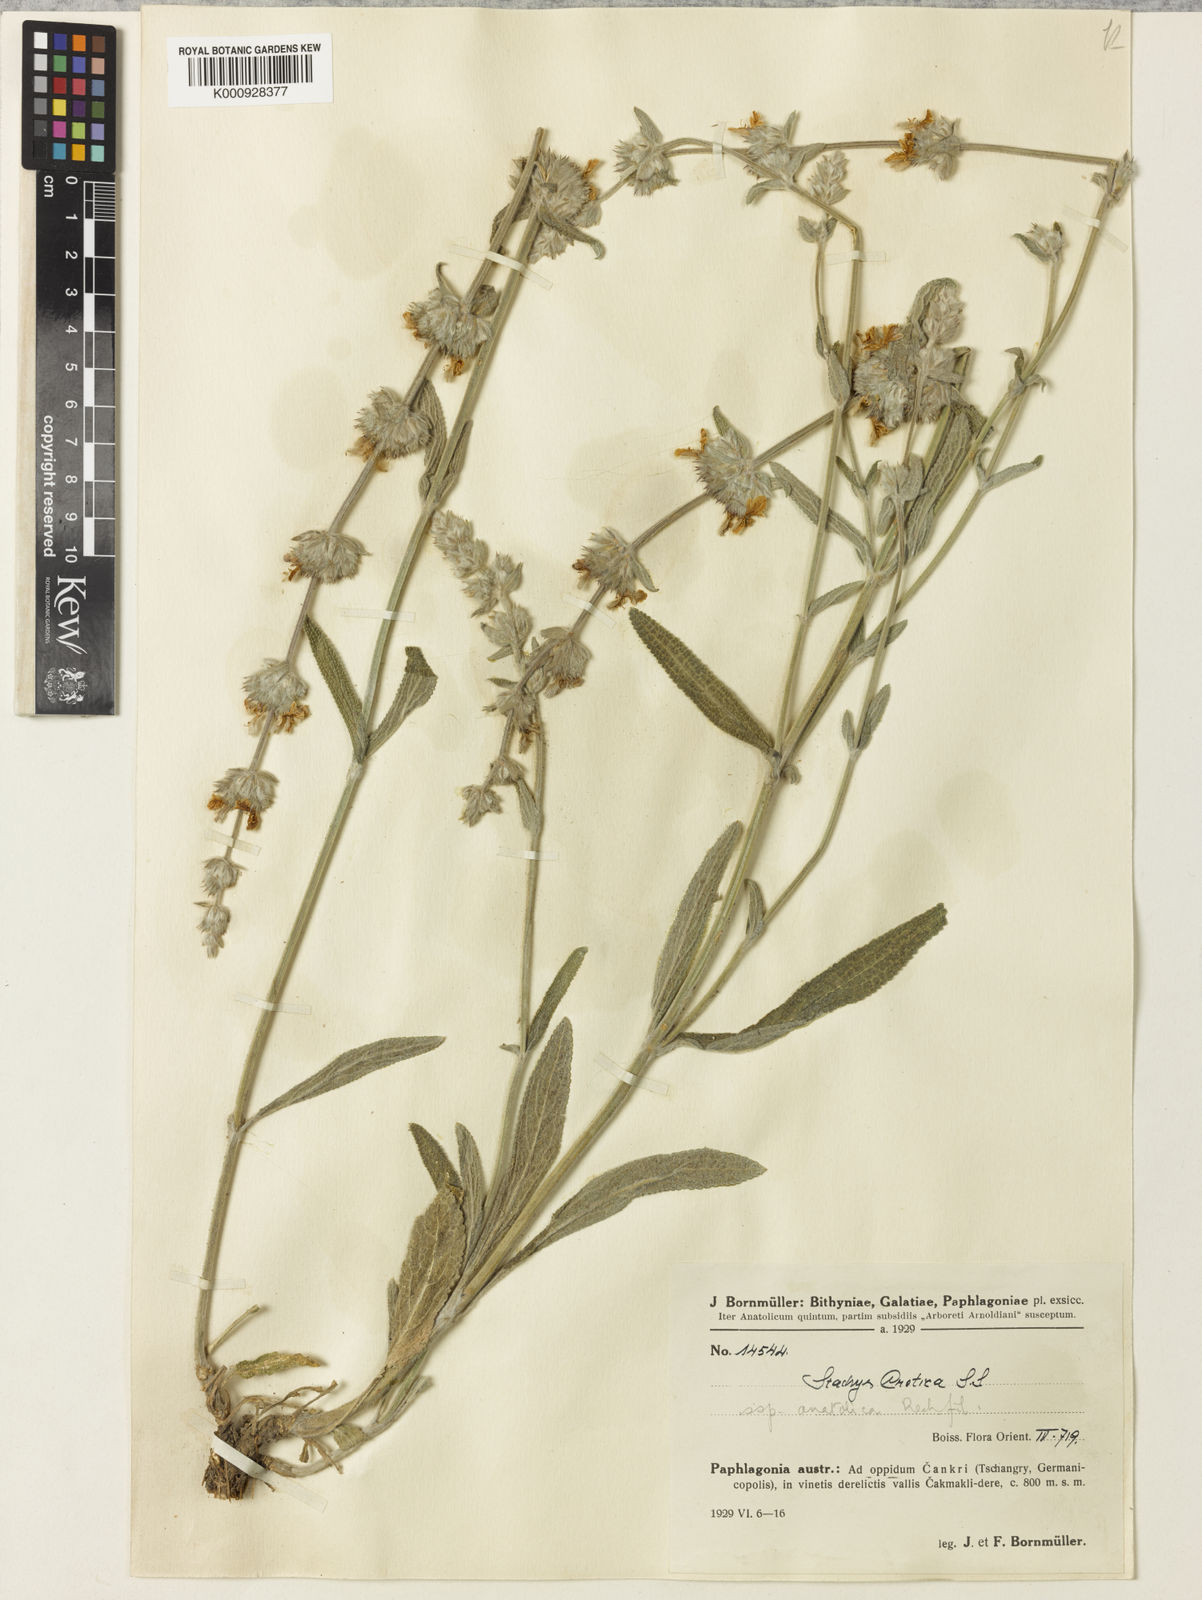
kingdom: Plantae
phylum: Tracheophyta
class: Magnoliopsida
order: Lamiales
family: Lamiaceae
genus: Stachys
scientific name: Stachys cretica
